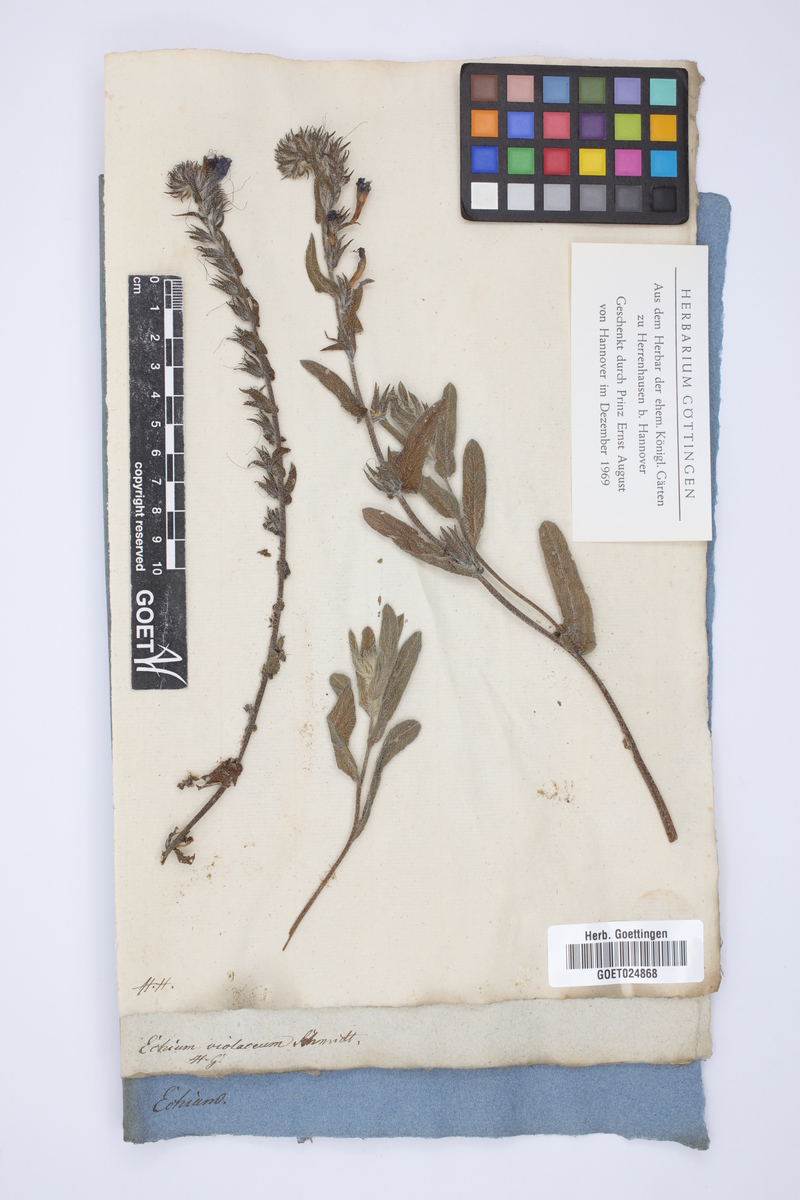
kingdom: Plantae
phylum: Tracheophyta
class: Magnoliopsida
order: Boraginales
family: Boraginaceae
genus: Echium
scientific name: Echium plantagineum
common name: Purple viper's-bugloss
